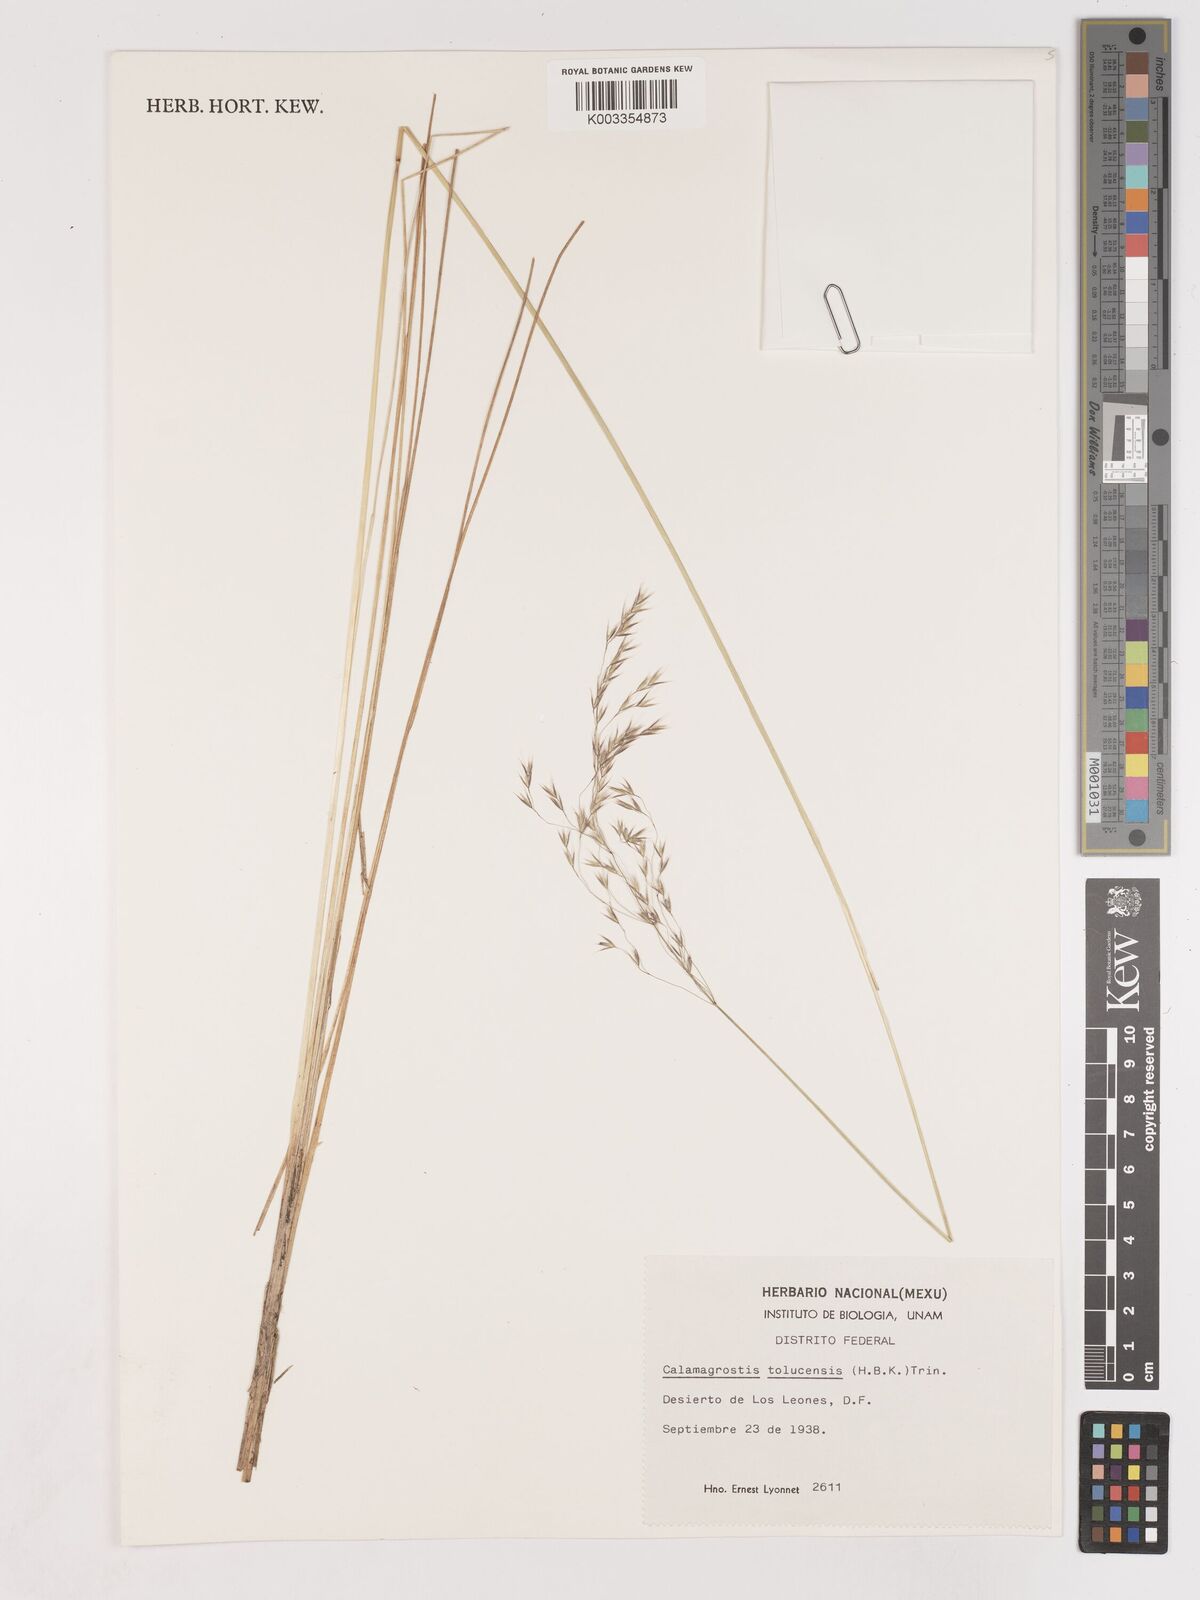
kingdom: Plantae
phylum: Tracheophyta
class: Liliopsida
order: Poales
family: Poaceae
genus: Peyritschia
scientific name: Peyritschia tolucensis
